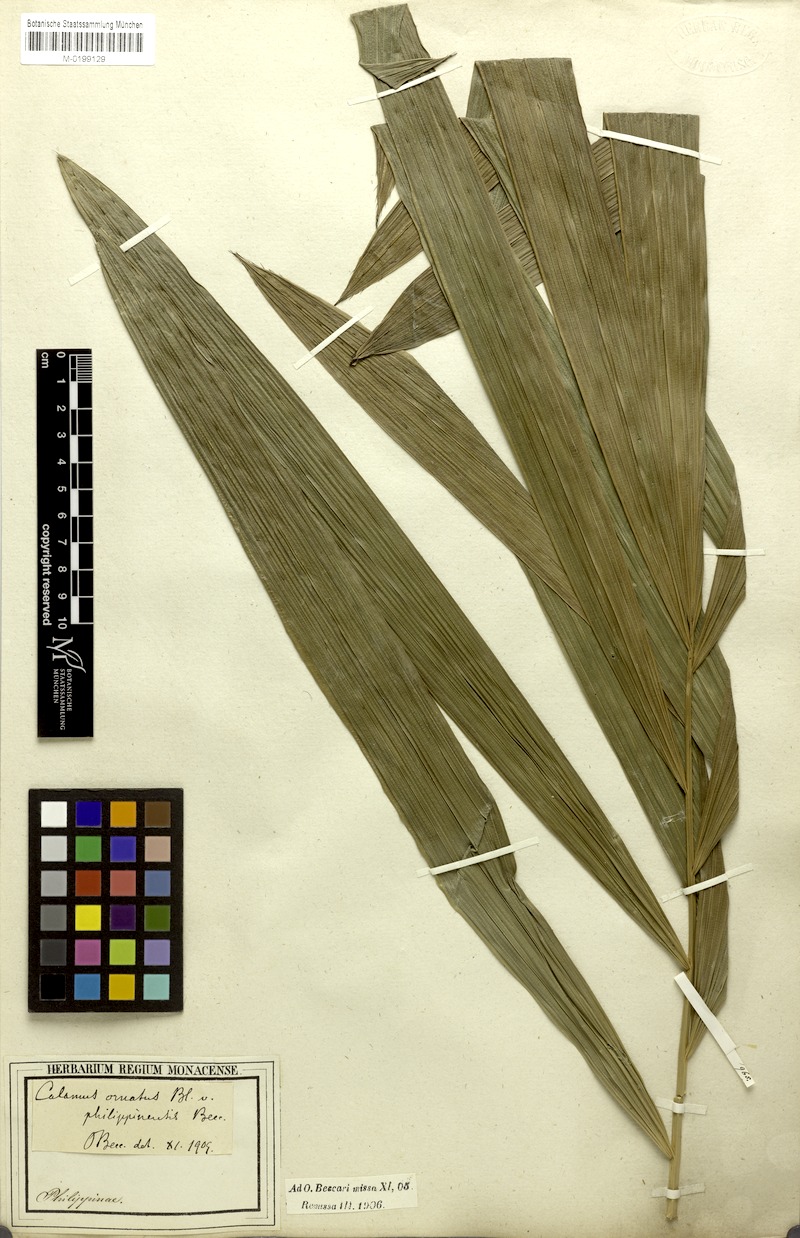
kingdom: Plantae
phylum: Tracheophyta
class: Liliopsida
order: Arecales
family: Arecaceae
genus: Calamus
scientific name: Calamus ornatus
